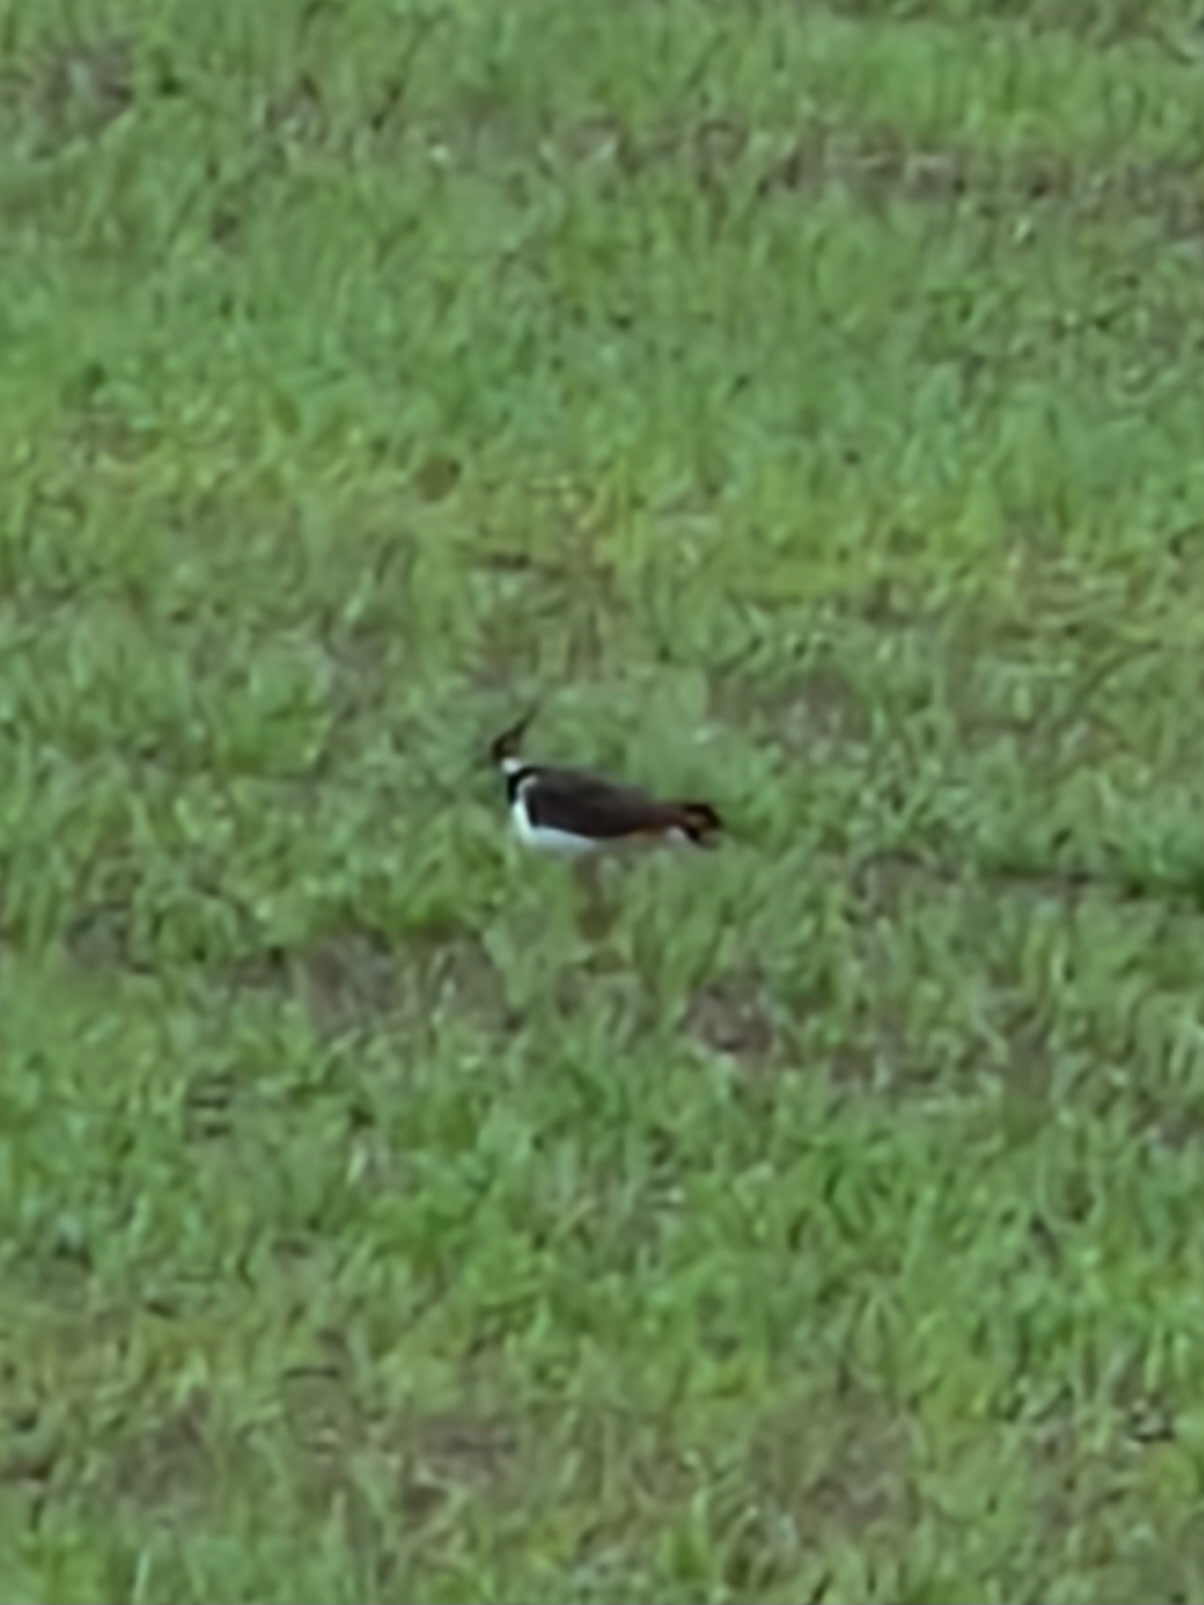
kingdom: Animalia
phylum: Chordata
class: Aves
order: Charadriiformes
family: Charadriidae
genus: Vanellus
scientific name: Vanellus vanellus
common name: Vibe
